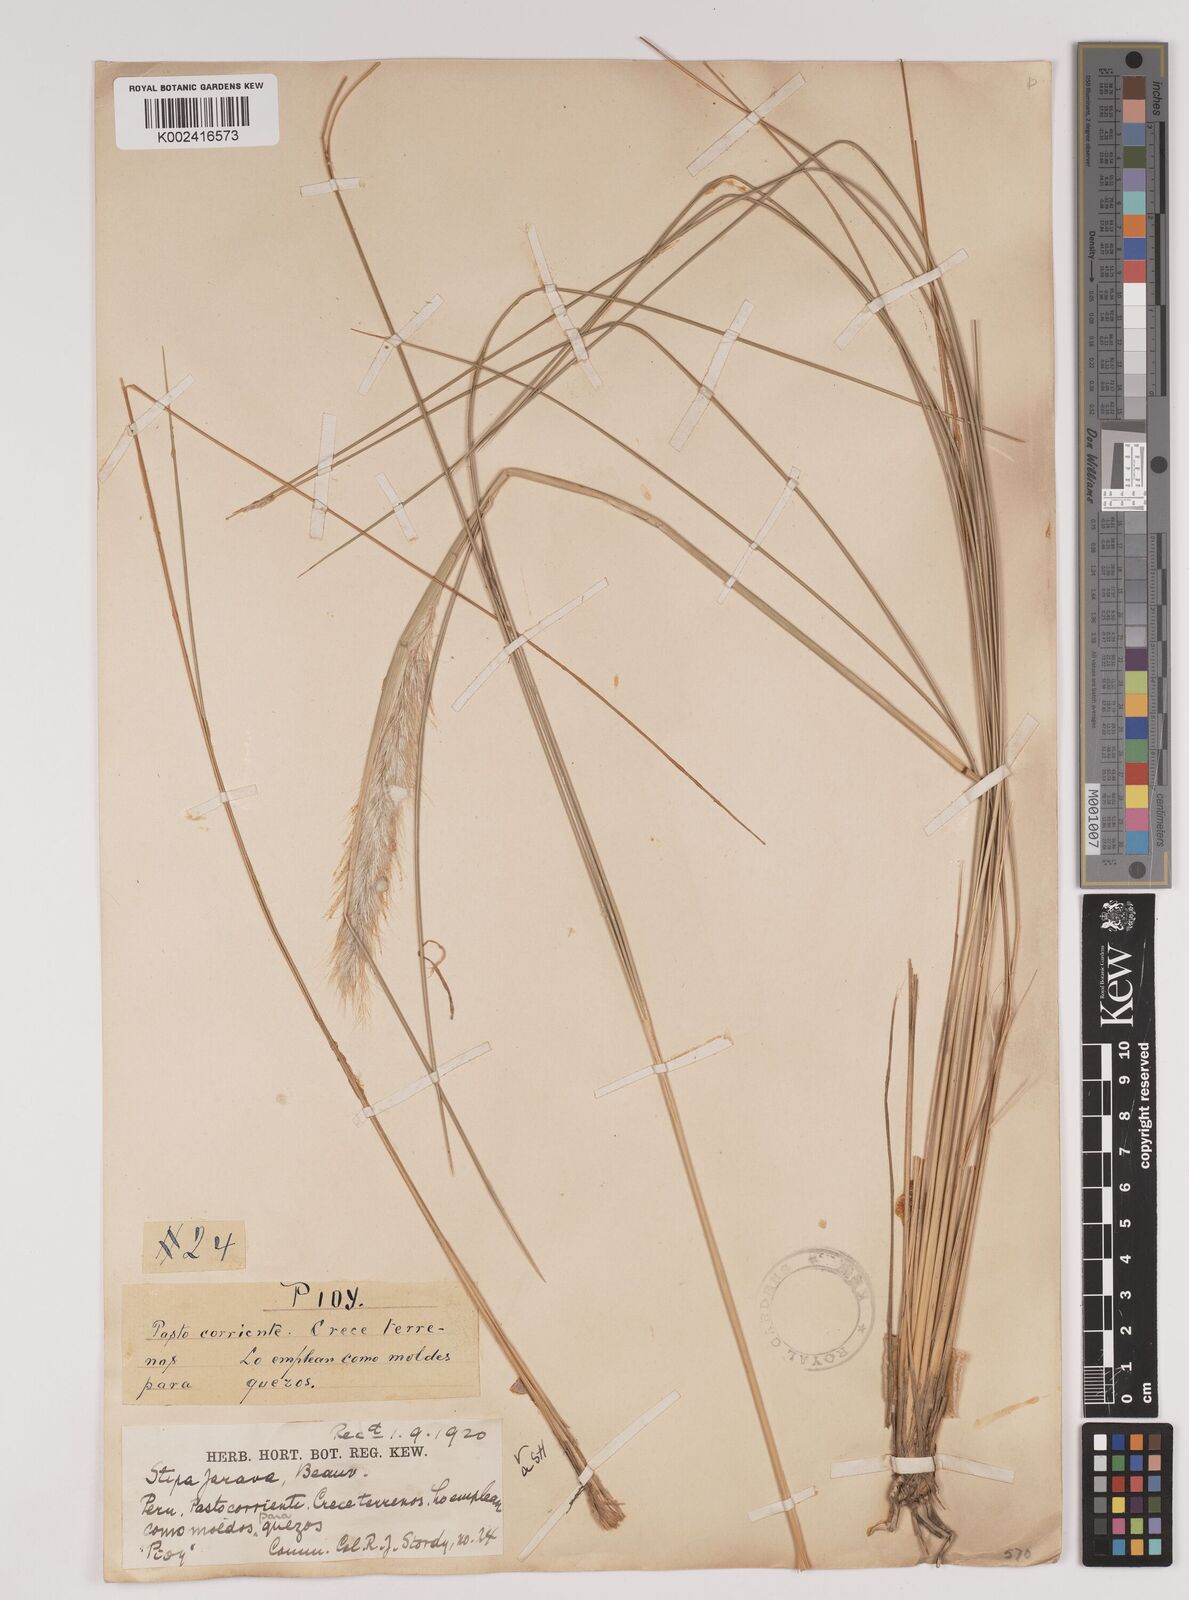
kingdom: Plantae
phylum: Tracheophyta
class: Liliopsida
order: Poales
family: Poaceae
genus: Jarava
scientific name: Jarava leptostachya
